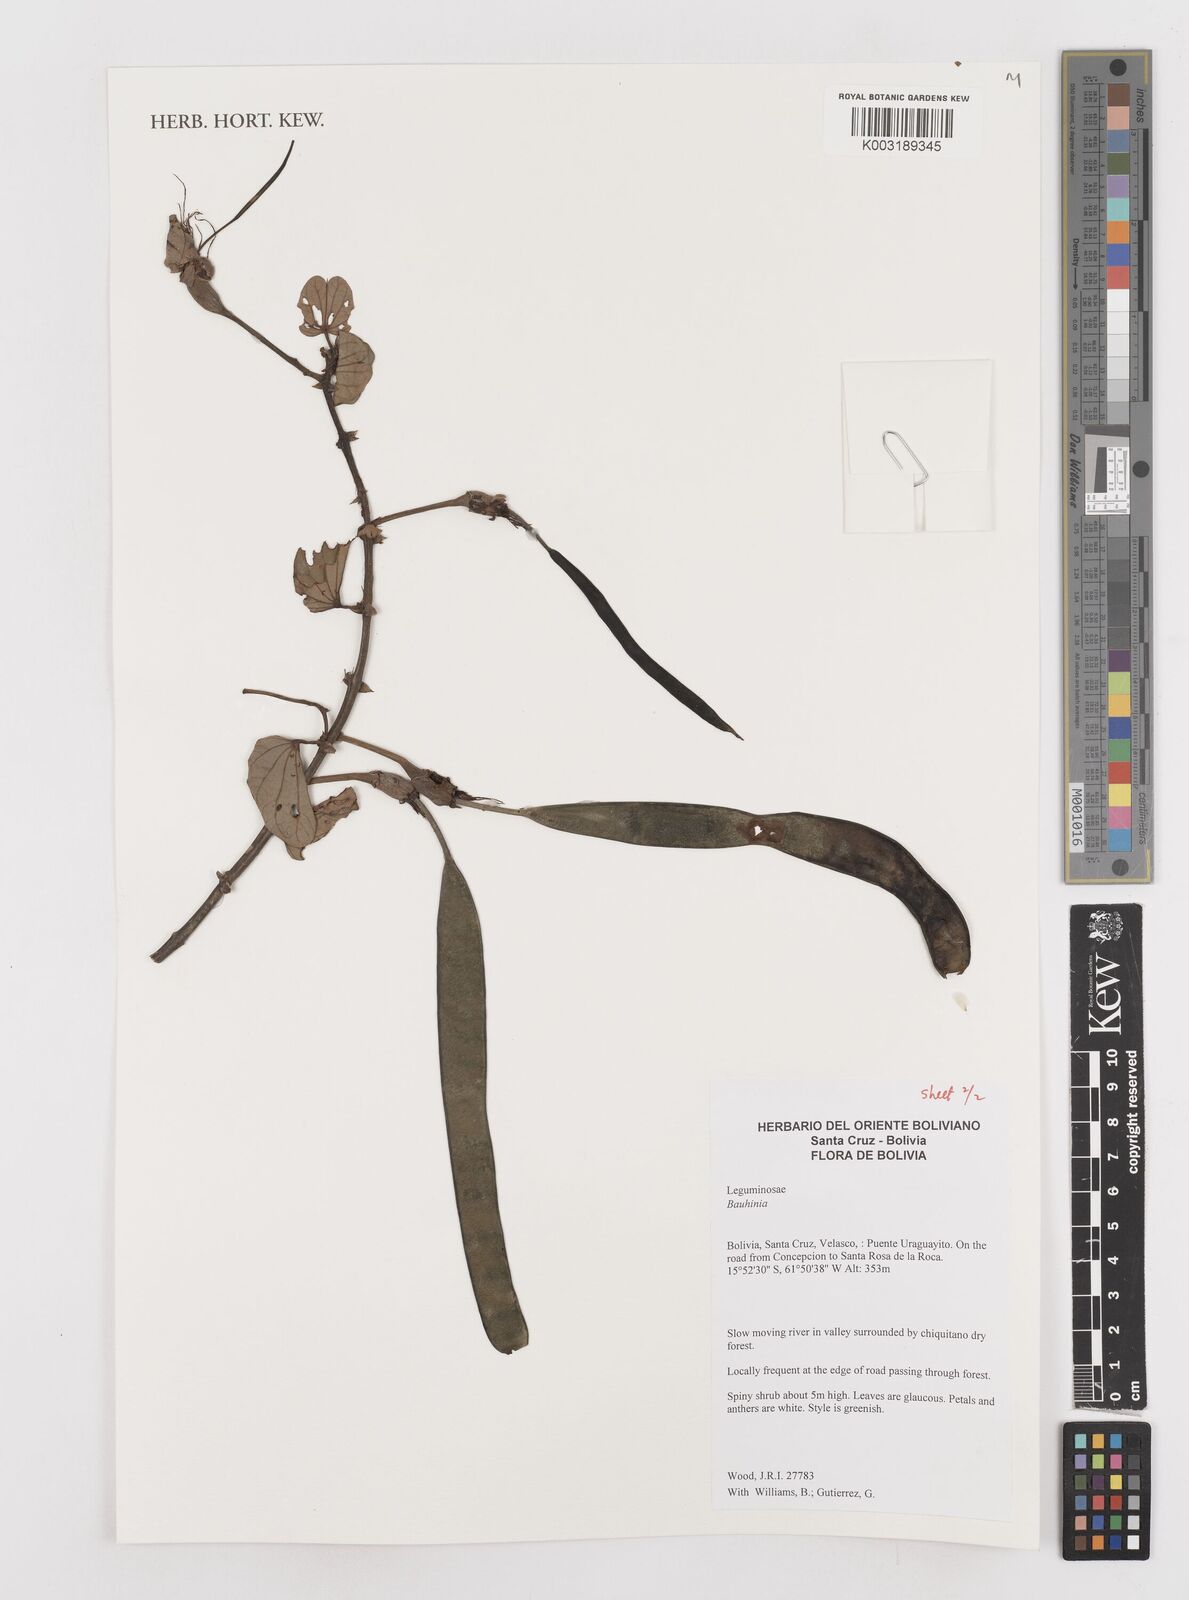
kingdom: Plantae
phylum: Tracheophyta
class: Magnoliopsida
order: Fabales
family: Fabaceae
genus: Bauhinia
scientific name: Bauhinia
